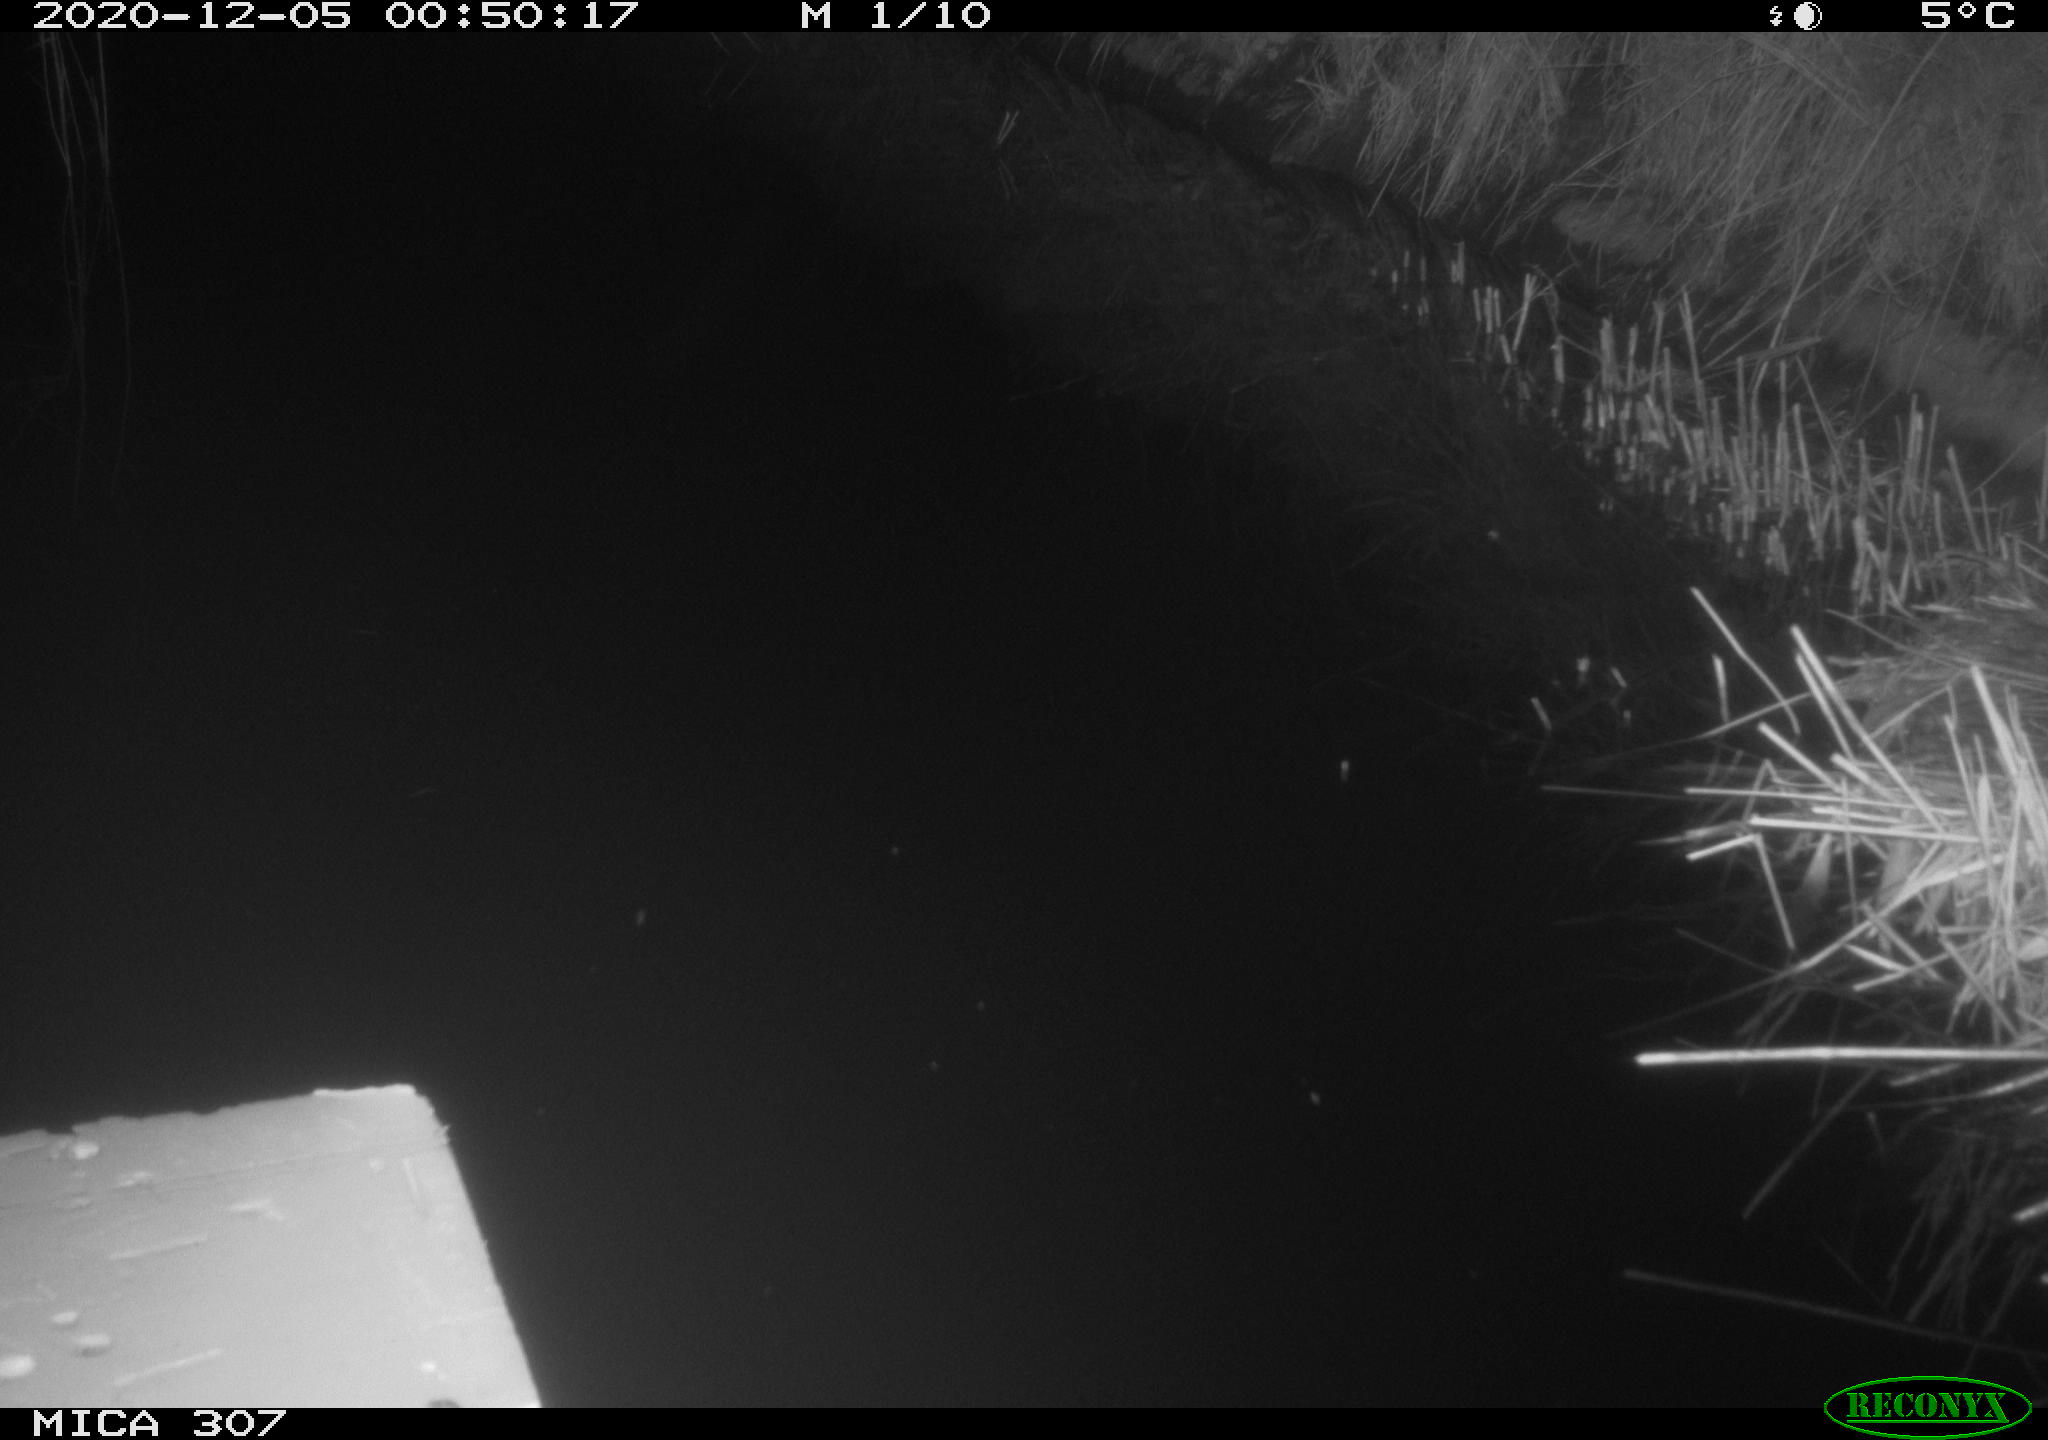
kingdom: Animalia
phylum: Chordata
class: Mammalia
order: Rodentia
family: Muridae
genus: Rattus
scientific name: Rattus norvegicus
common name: Brown rat
